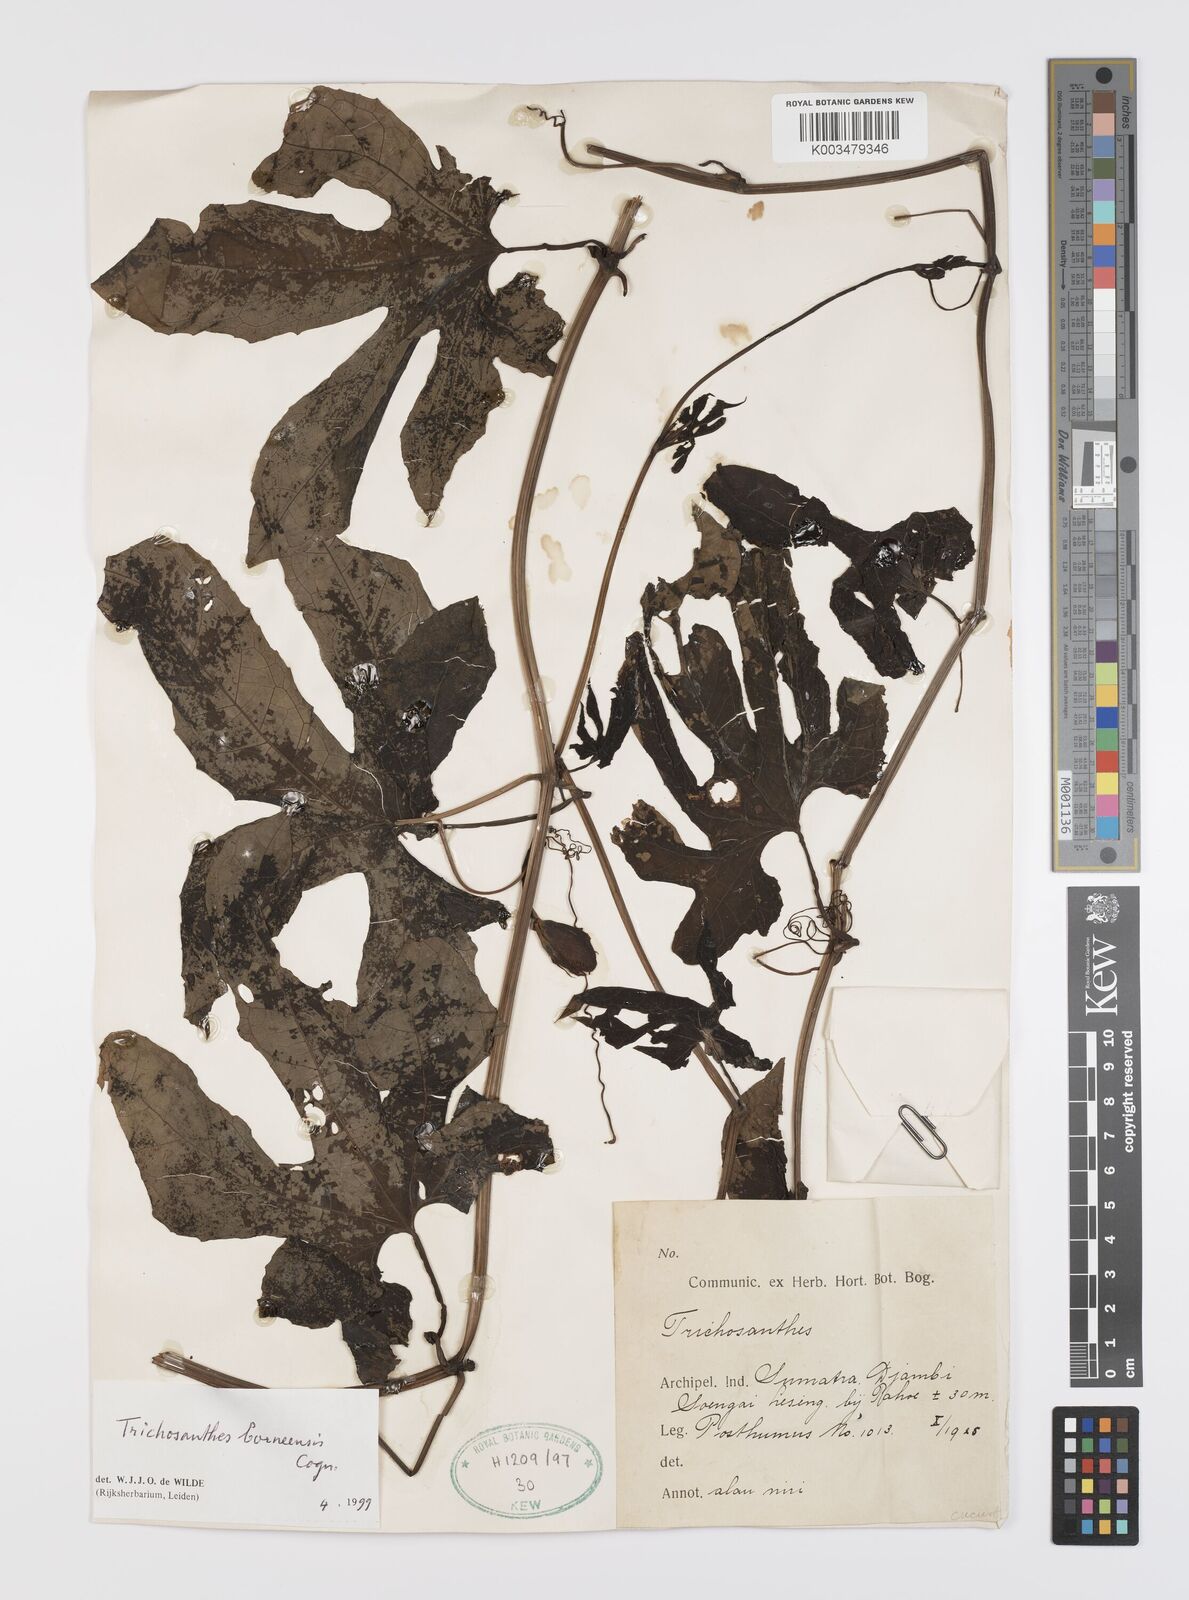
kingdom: Plantae
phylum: Tracheophyta
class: Magnoliopsida
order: Cucurbitales
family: Cucurbitaceae
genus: Trichosanthes
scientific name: Trichosanthes borneensis
